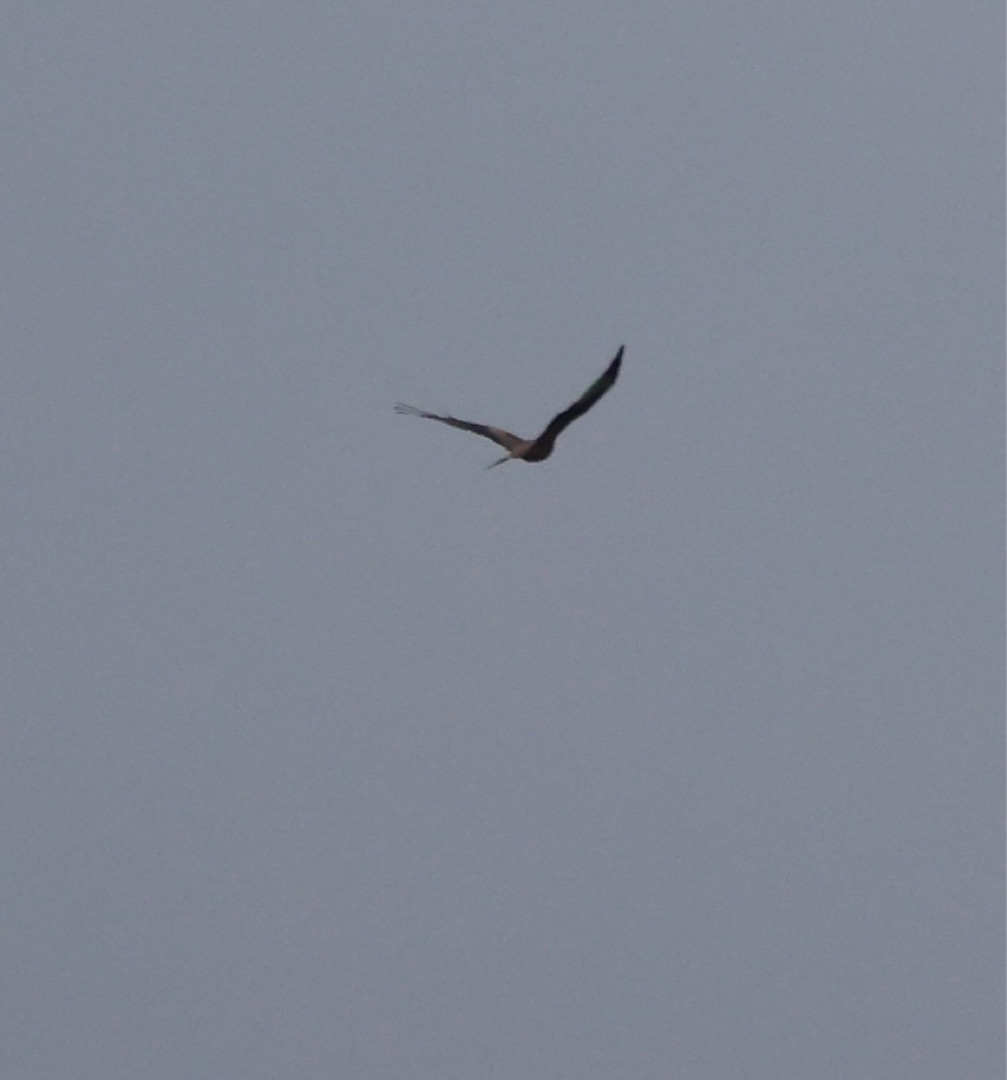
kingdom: Animalia
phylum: Chordata
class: Aves
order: Accipitriformes
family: Accipitridae
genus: Milvus
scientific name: Milvus milvus
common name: Rød glente
